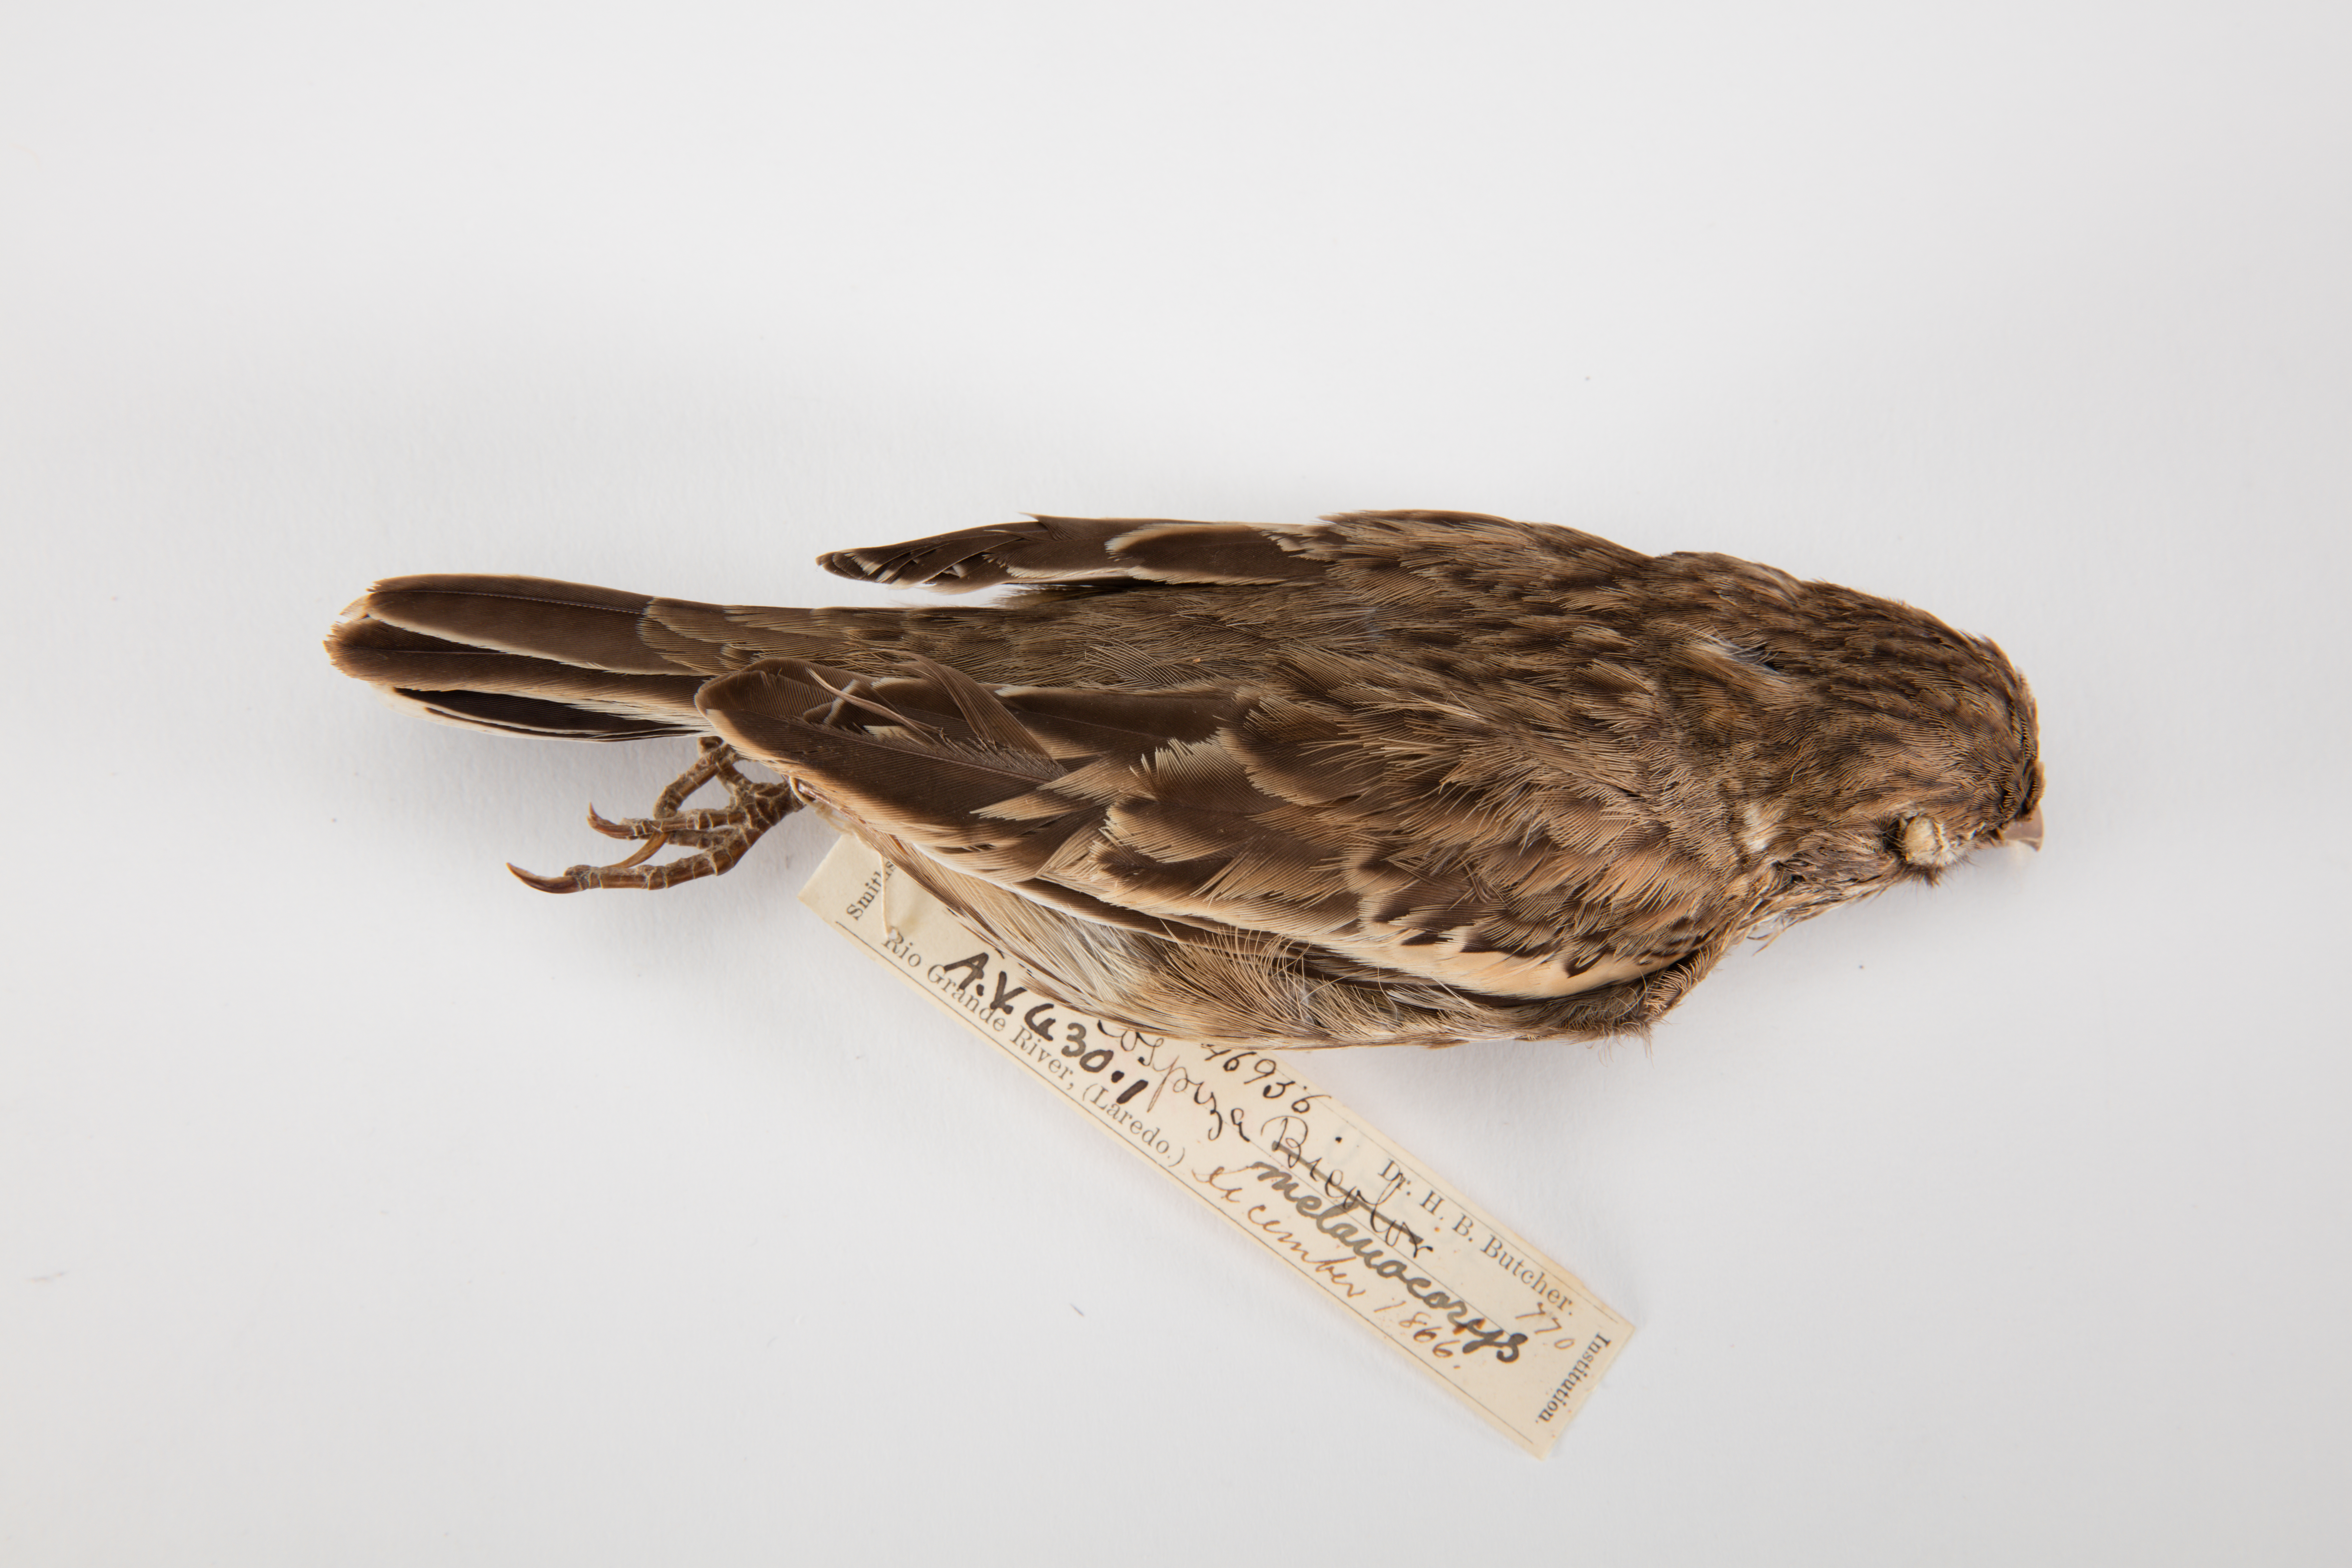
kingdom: Animalia
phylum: Chordata
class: Aves
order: Passeriformes
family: Passerellidae
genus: Calamospiza
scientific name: Calamospiza melanocorys
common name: Lark bunting
